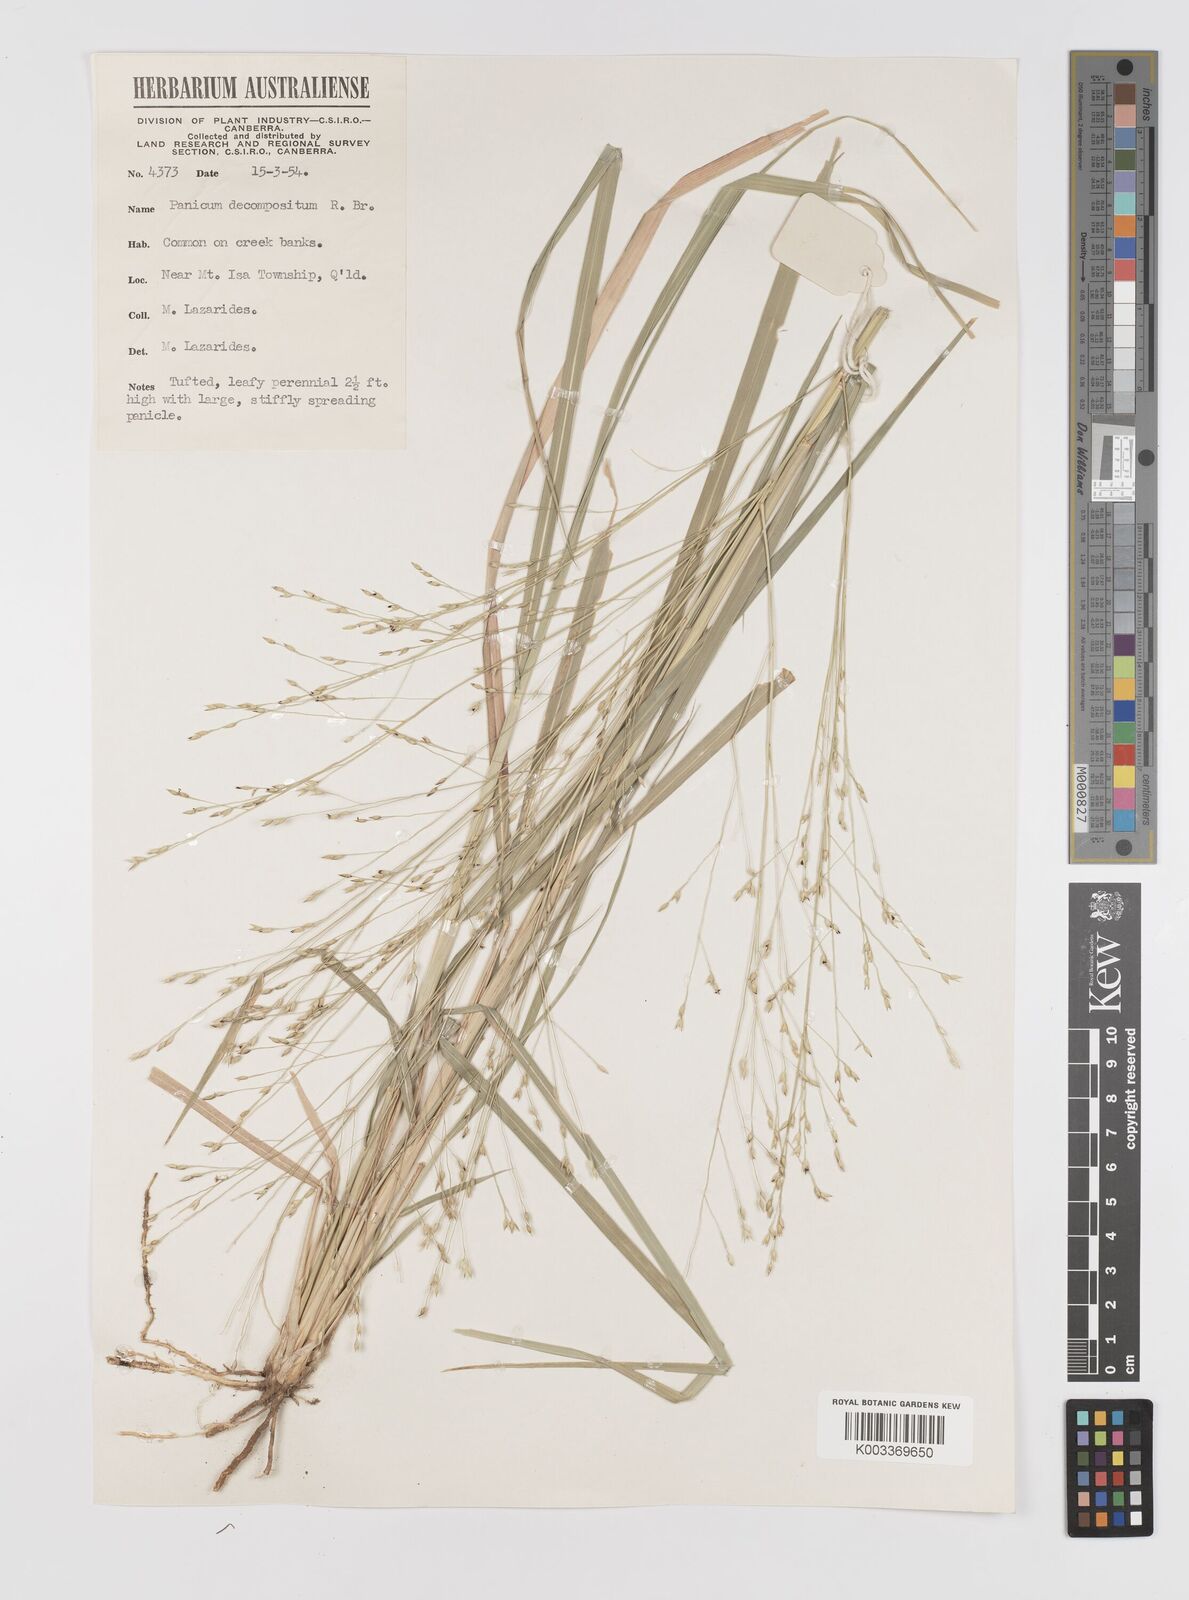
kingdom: Plantae
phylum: Tracheophyta
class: Liliopsida
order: Poales
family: Poaceae
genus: Panicum
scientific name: Panicum decompositum
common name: Australian millet
